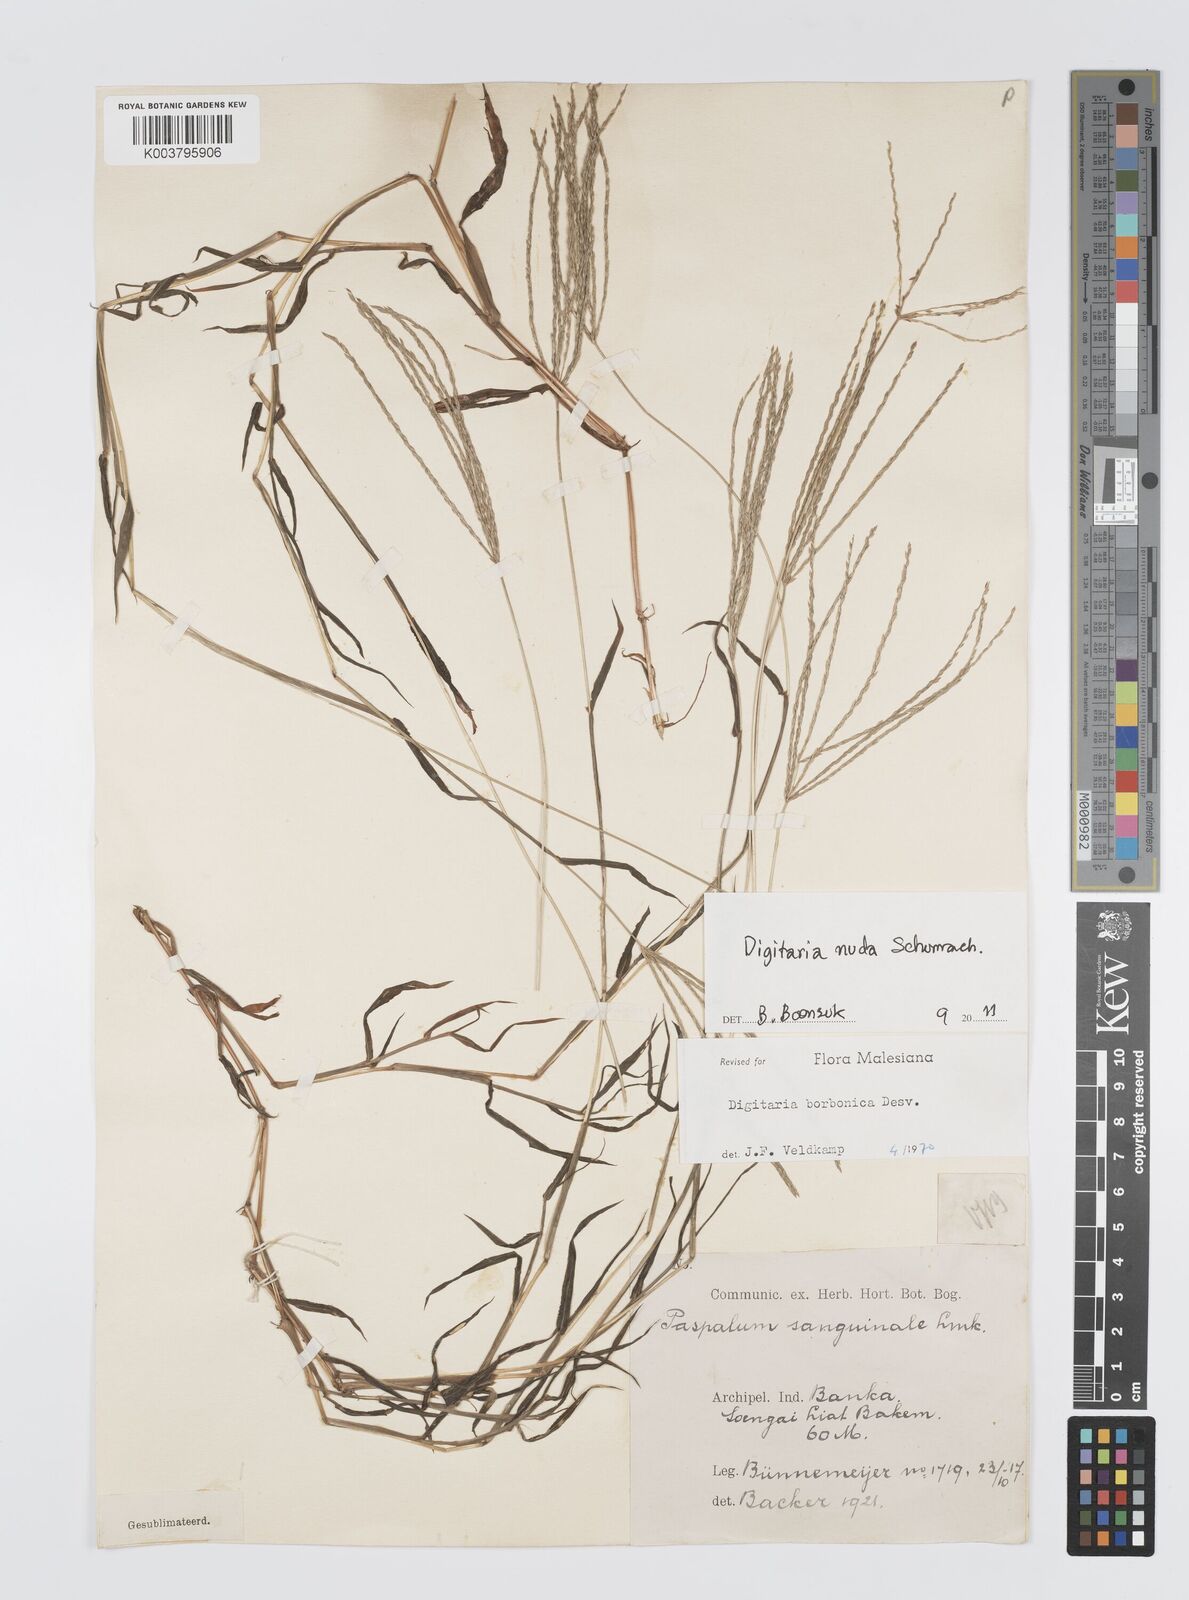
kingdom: Plantae
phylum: Tracheophyta
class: Liliopsida
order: Poales
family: Poaceae
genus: Digitaria
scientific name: Digitaria nuda
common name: Naked crabgrass
